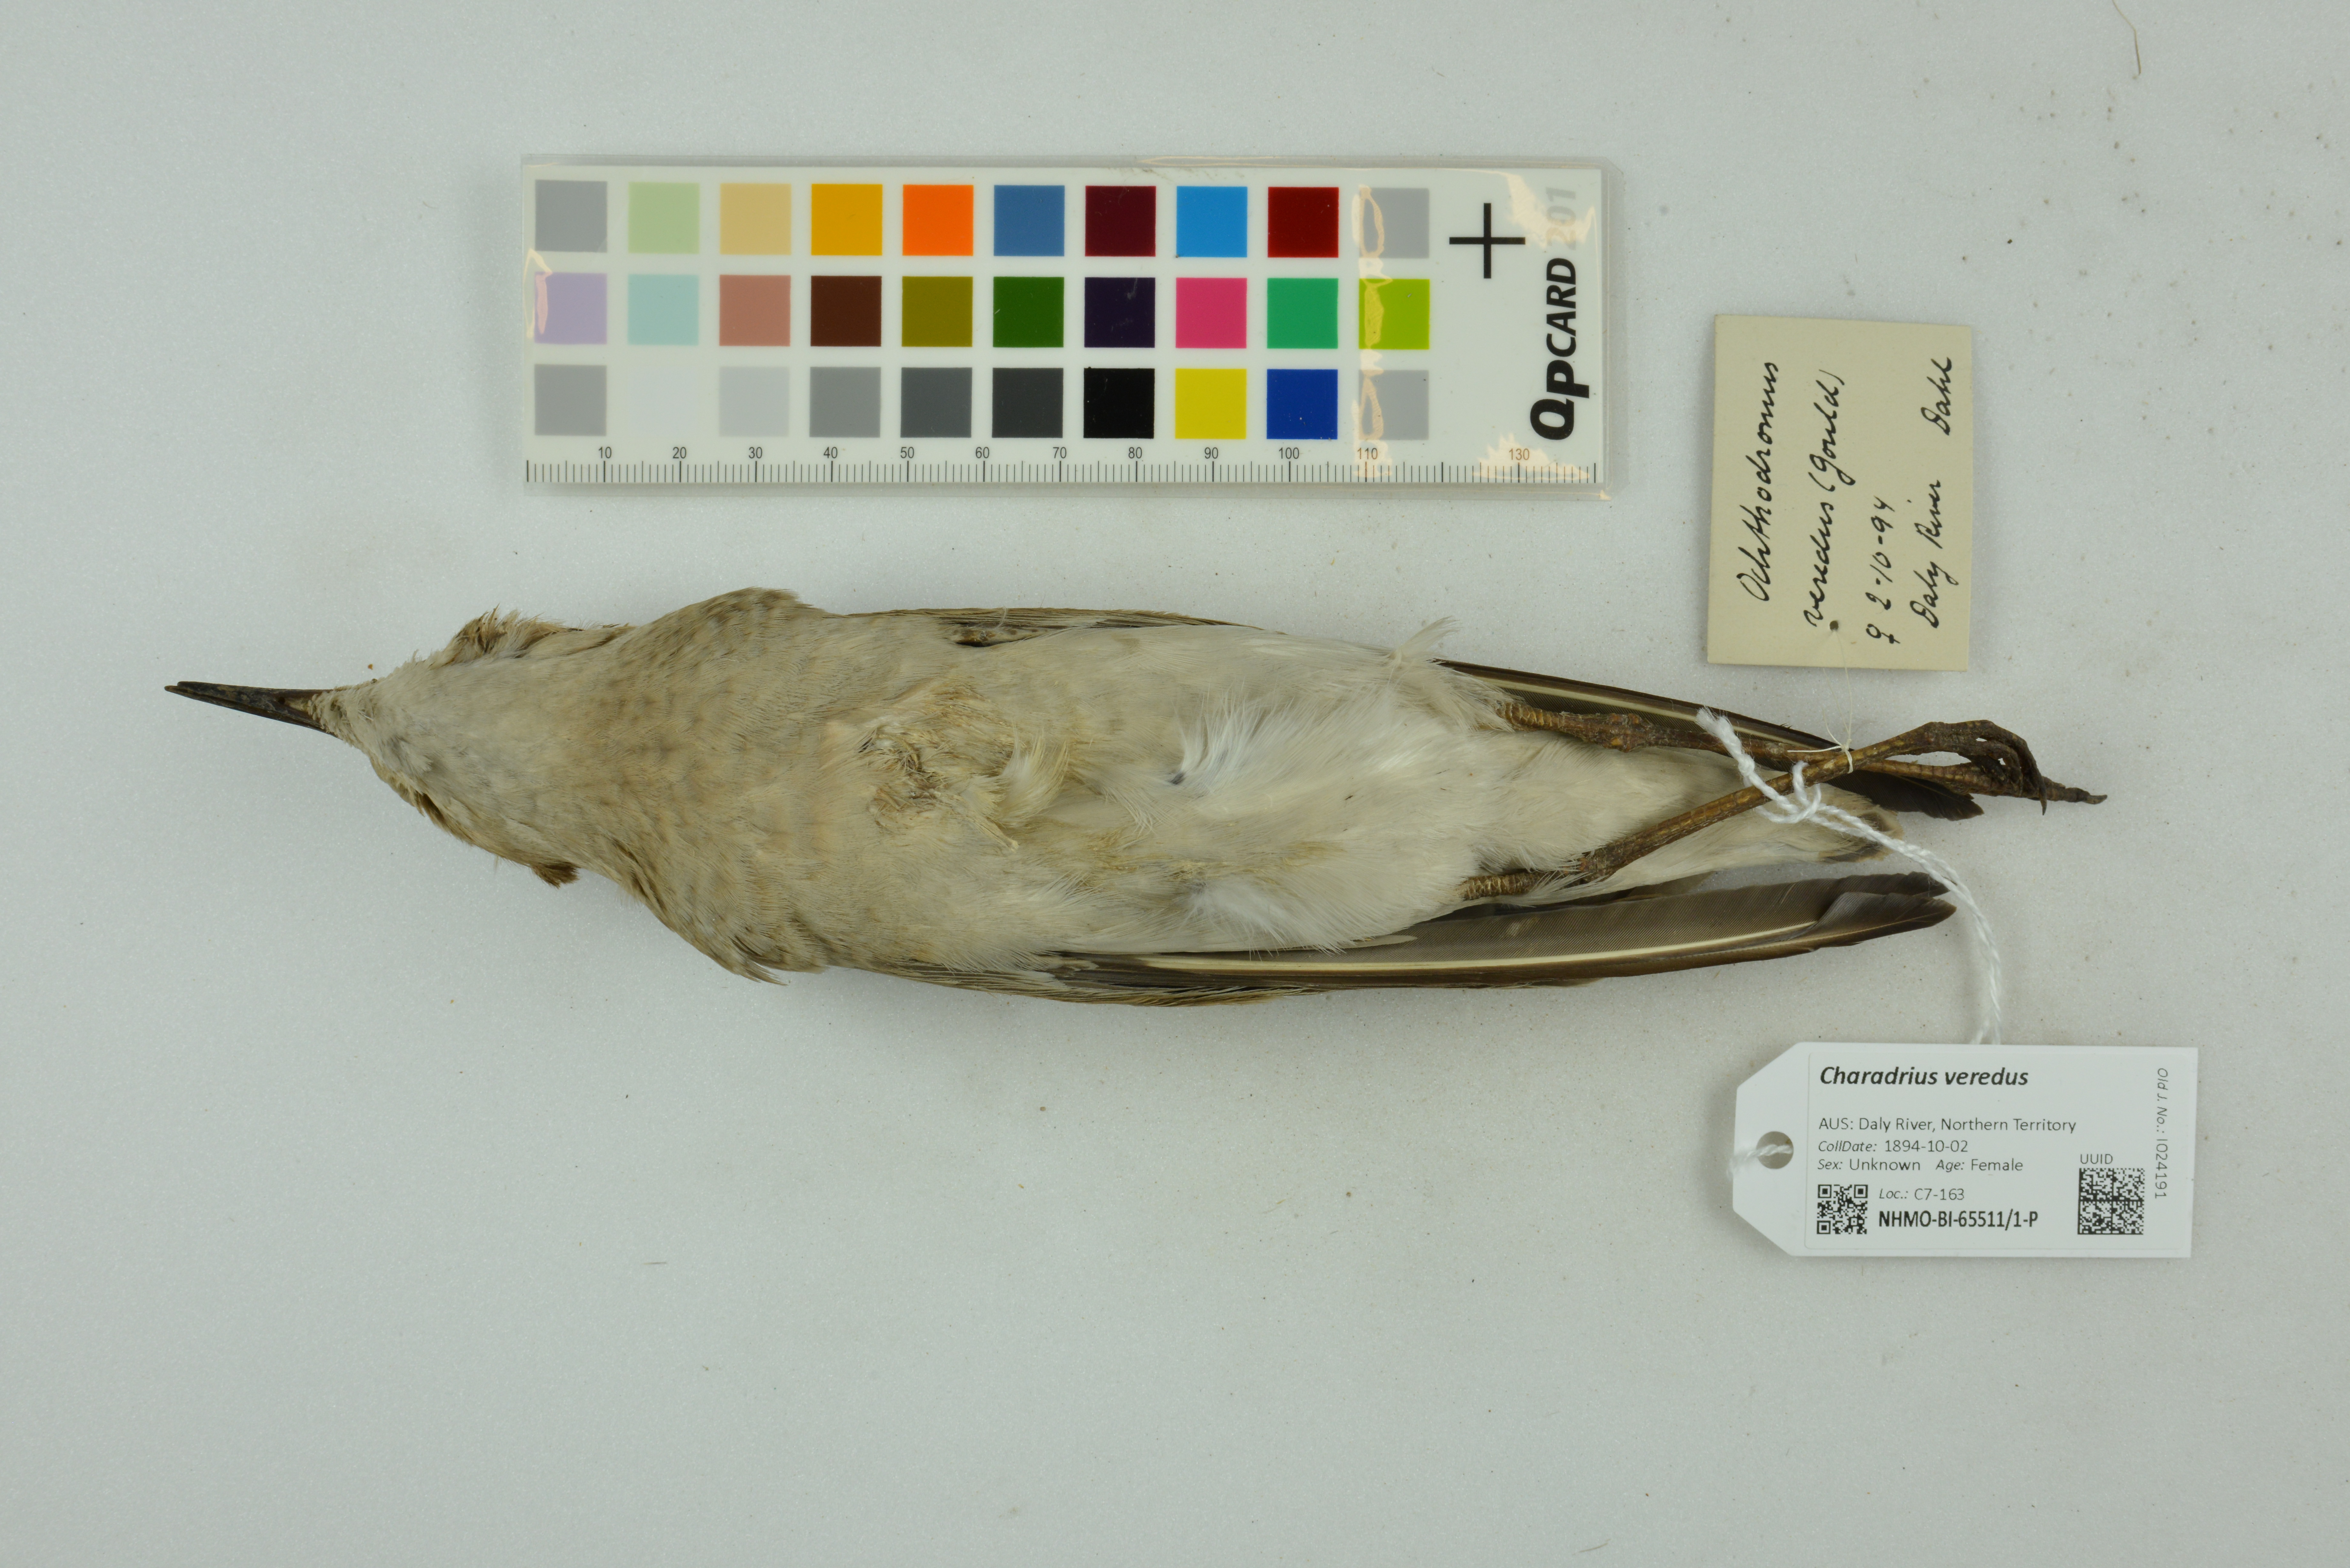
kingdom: Animalia
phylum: Chordata
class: Aves
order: Charadriiformes
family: Charadriidae
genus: Charadrius
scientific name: Charadrius veredus
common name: Oriental plover
